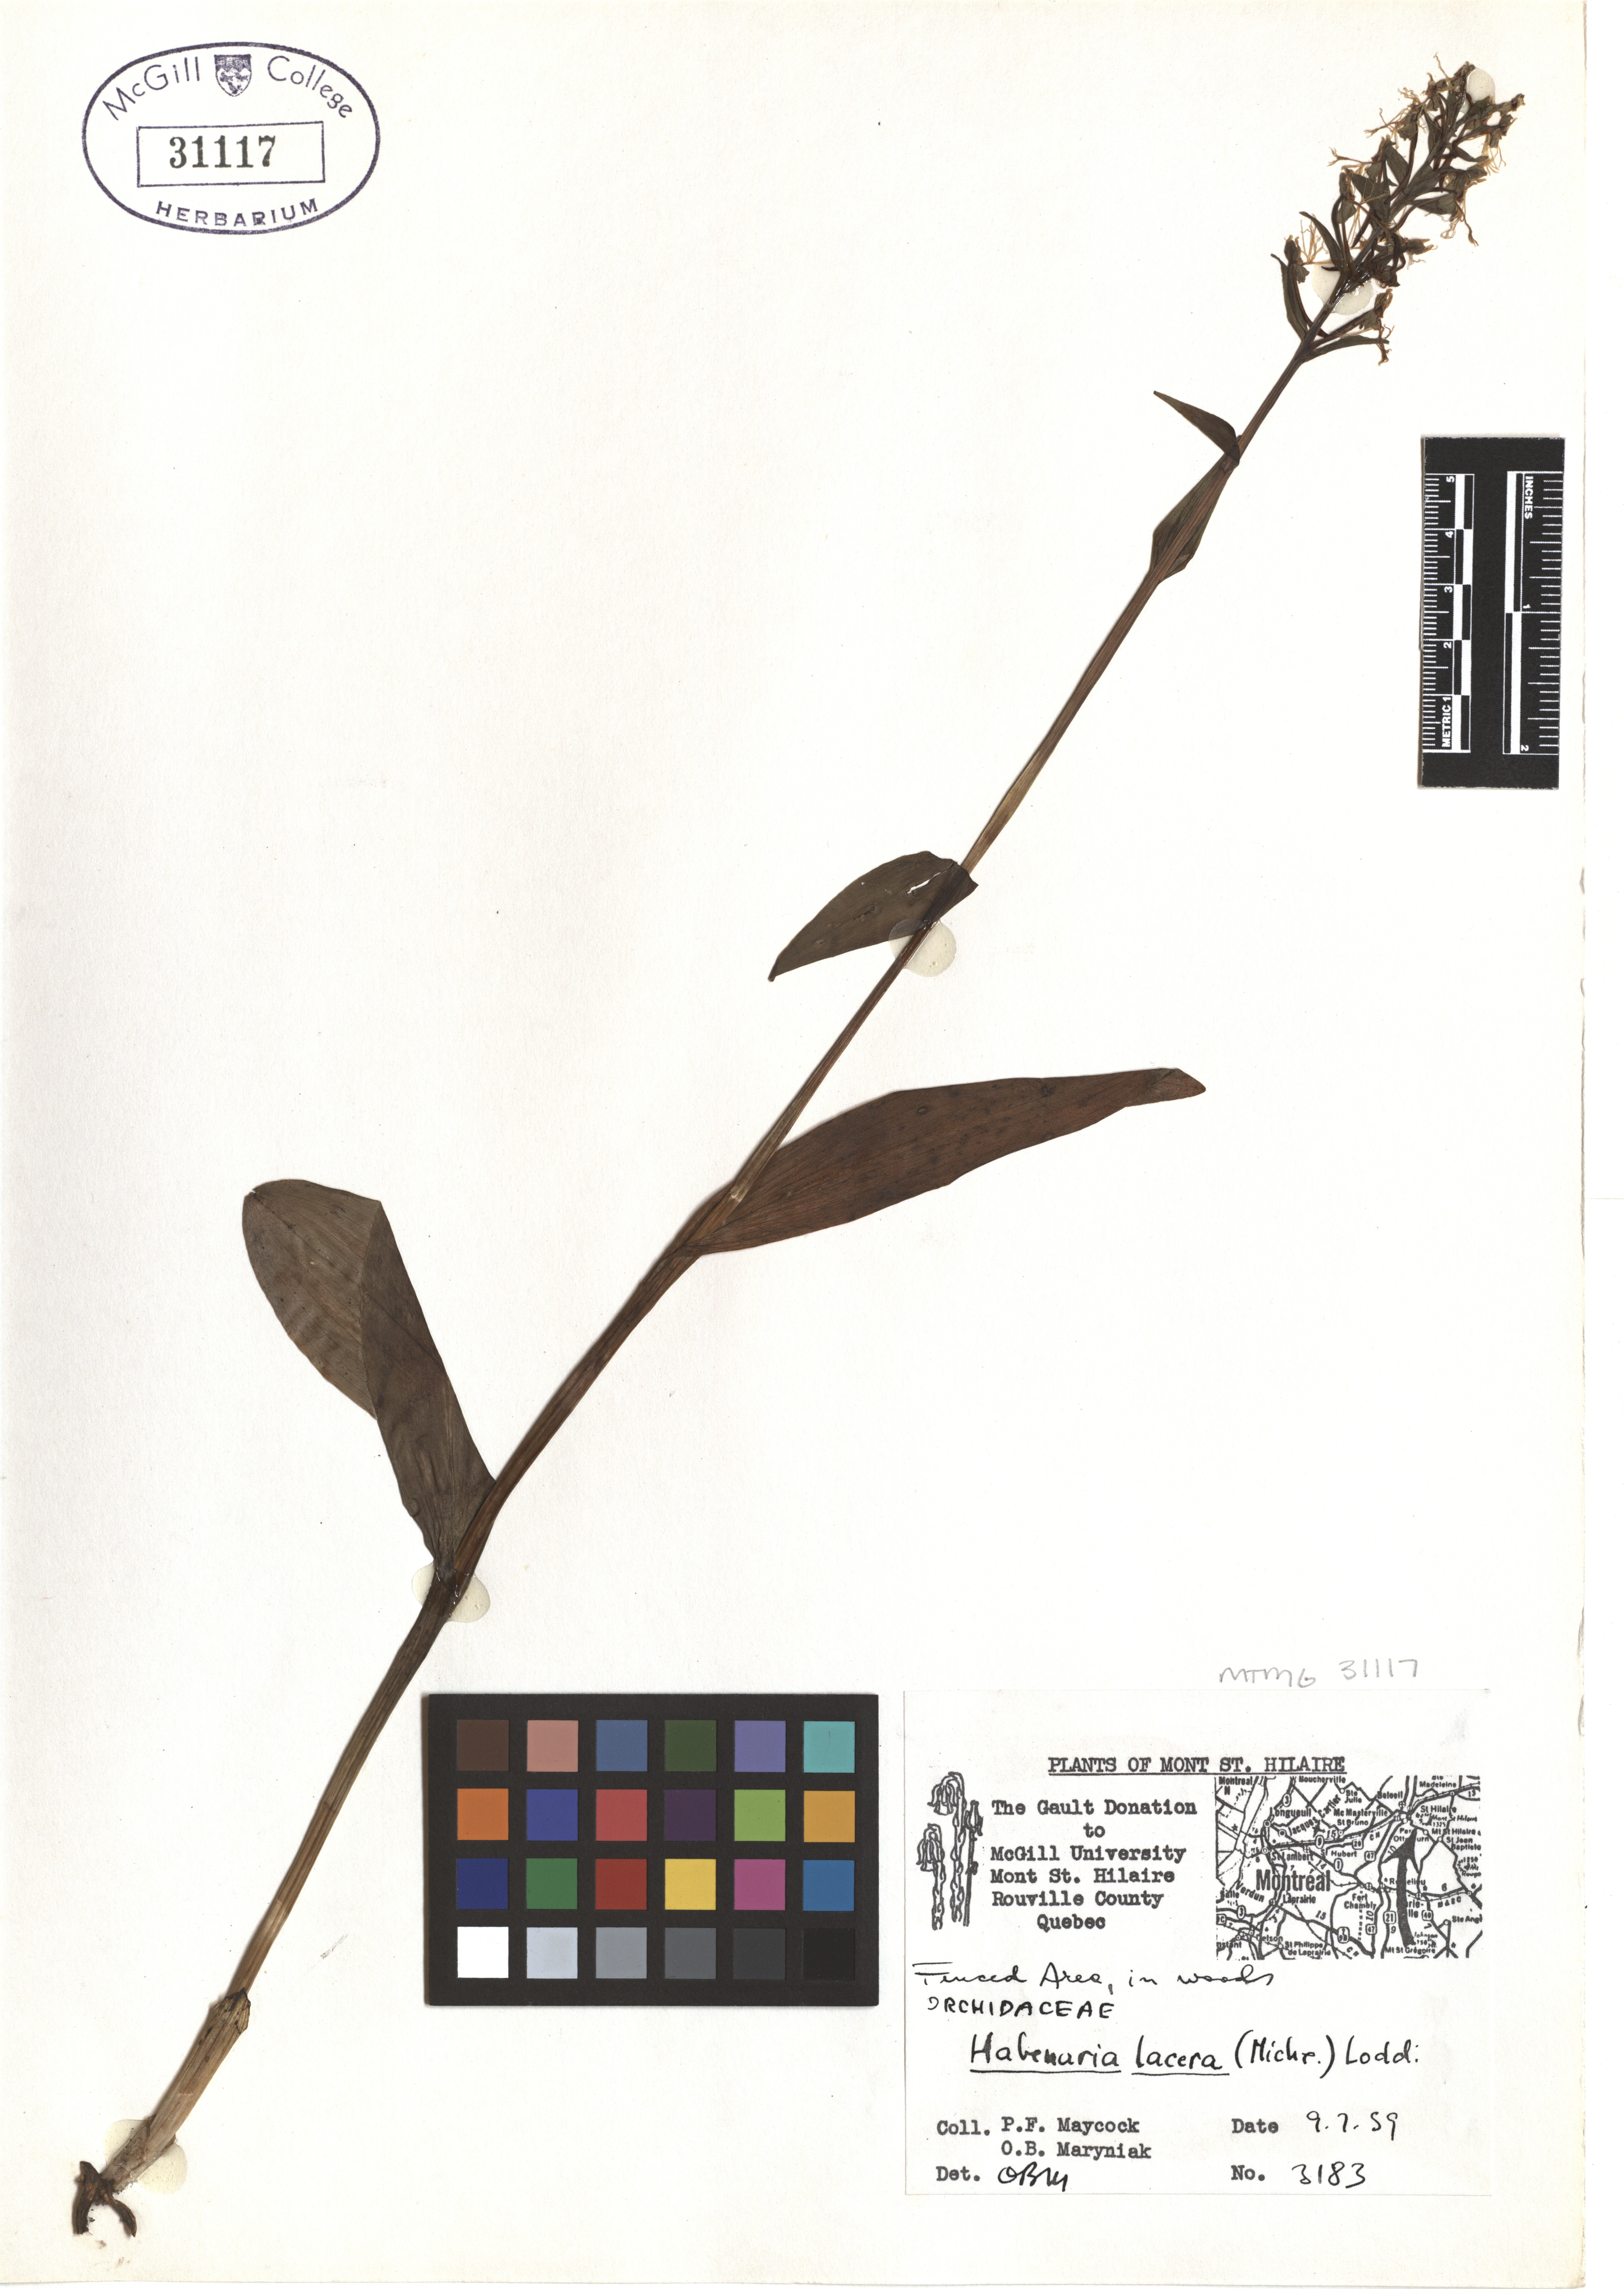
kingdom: Plantae
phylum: Tracheophyta
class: Liliopsida
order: Asparagales
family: Orchidaceae
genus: Platanthera
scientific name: Platanthera lacera
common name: Green fringed orchid
